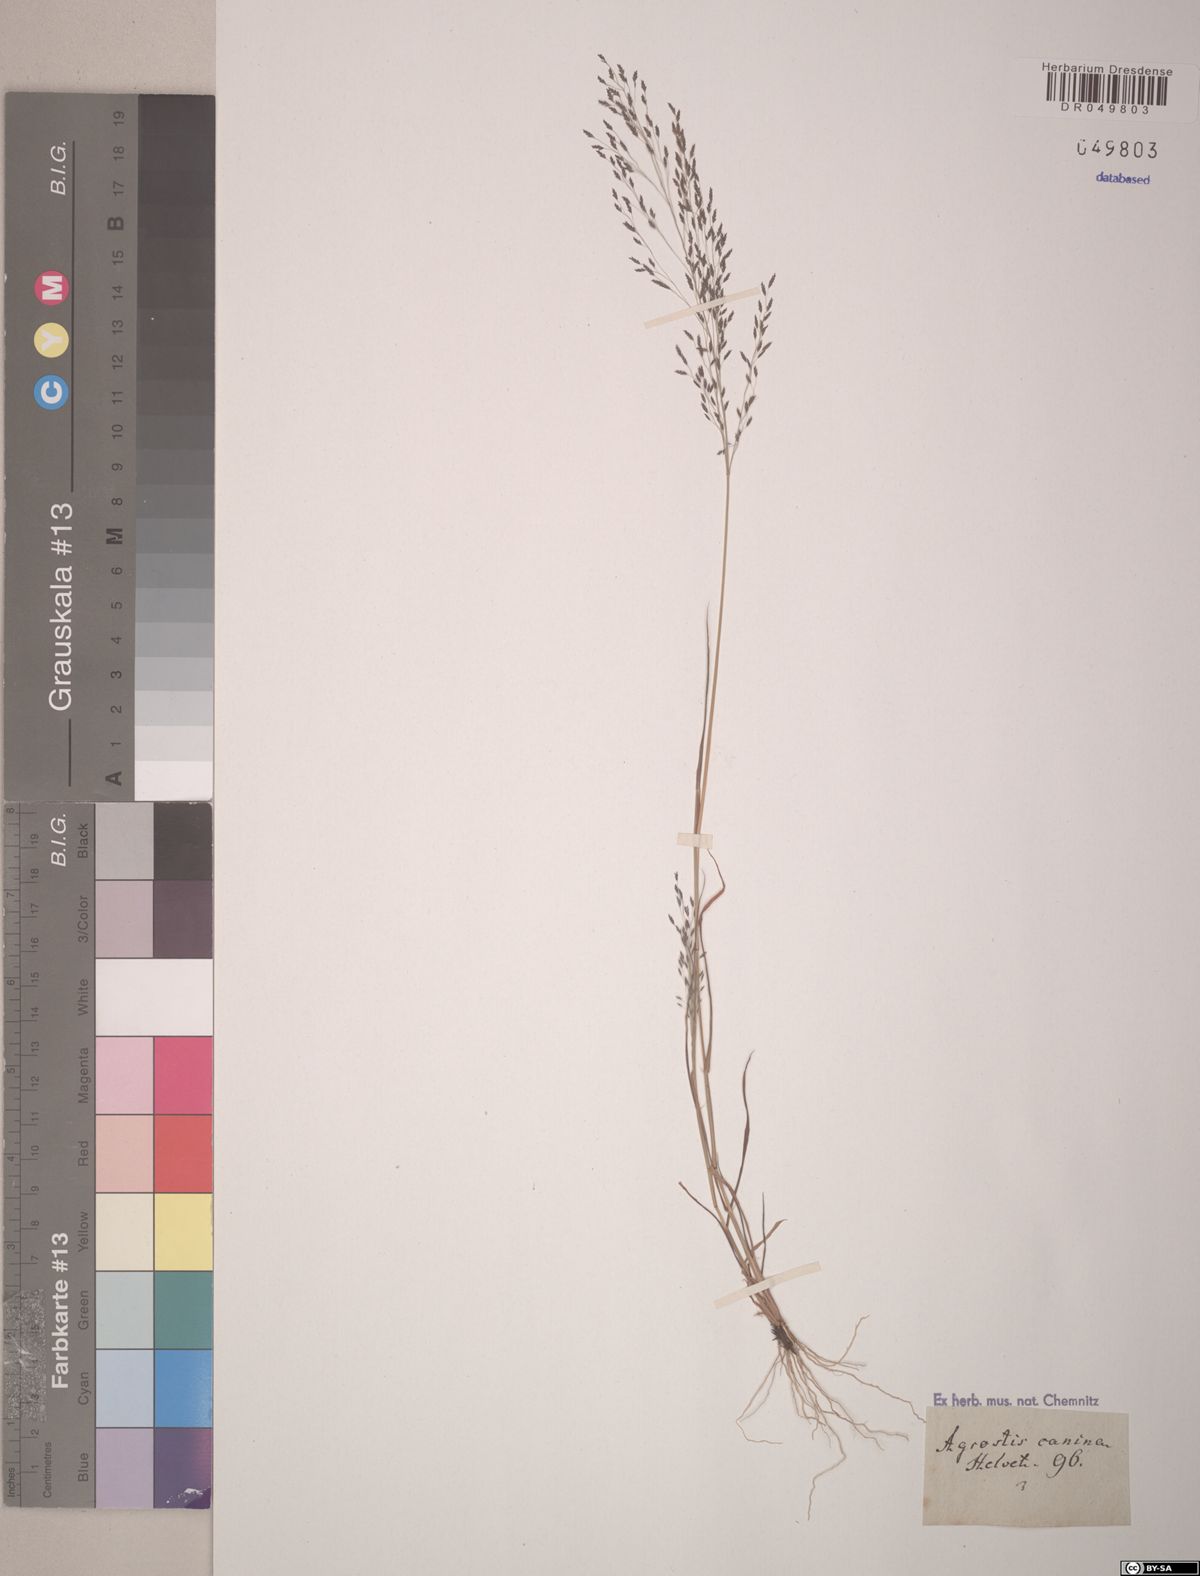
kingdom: Plantae
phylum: Tracheophyta
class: Liliopsida
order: Poales
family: Poaceae
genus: Agrostis
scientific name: Agrostis canina
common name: Velvet bent
